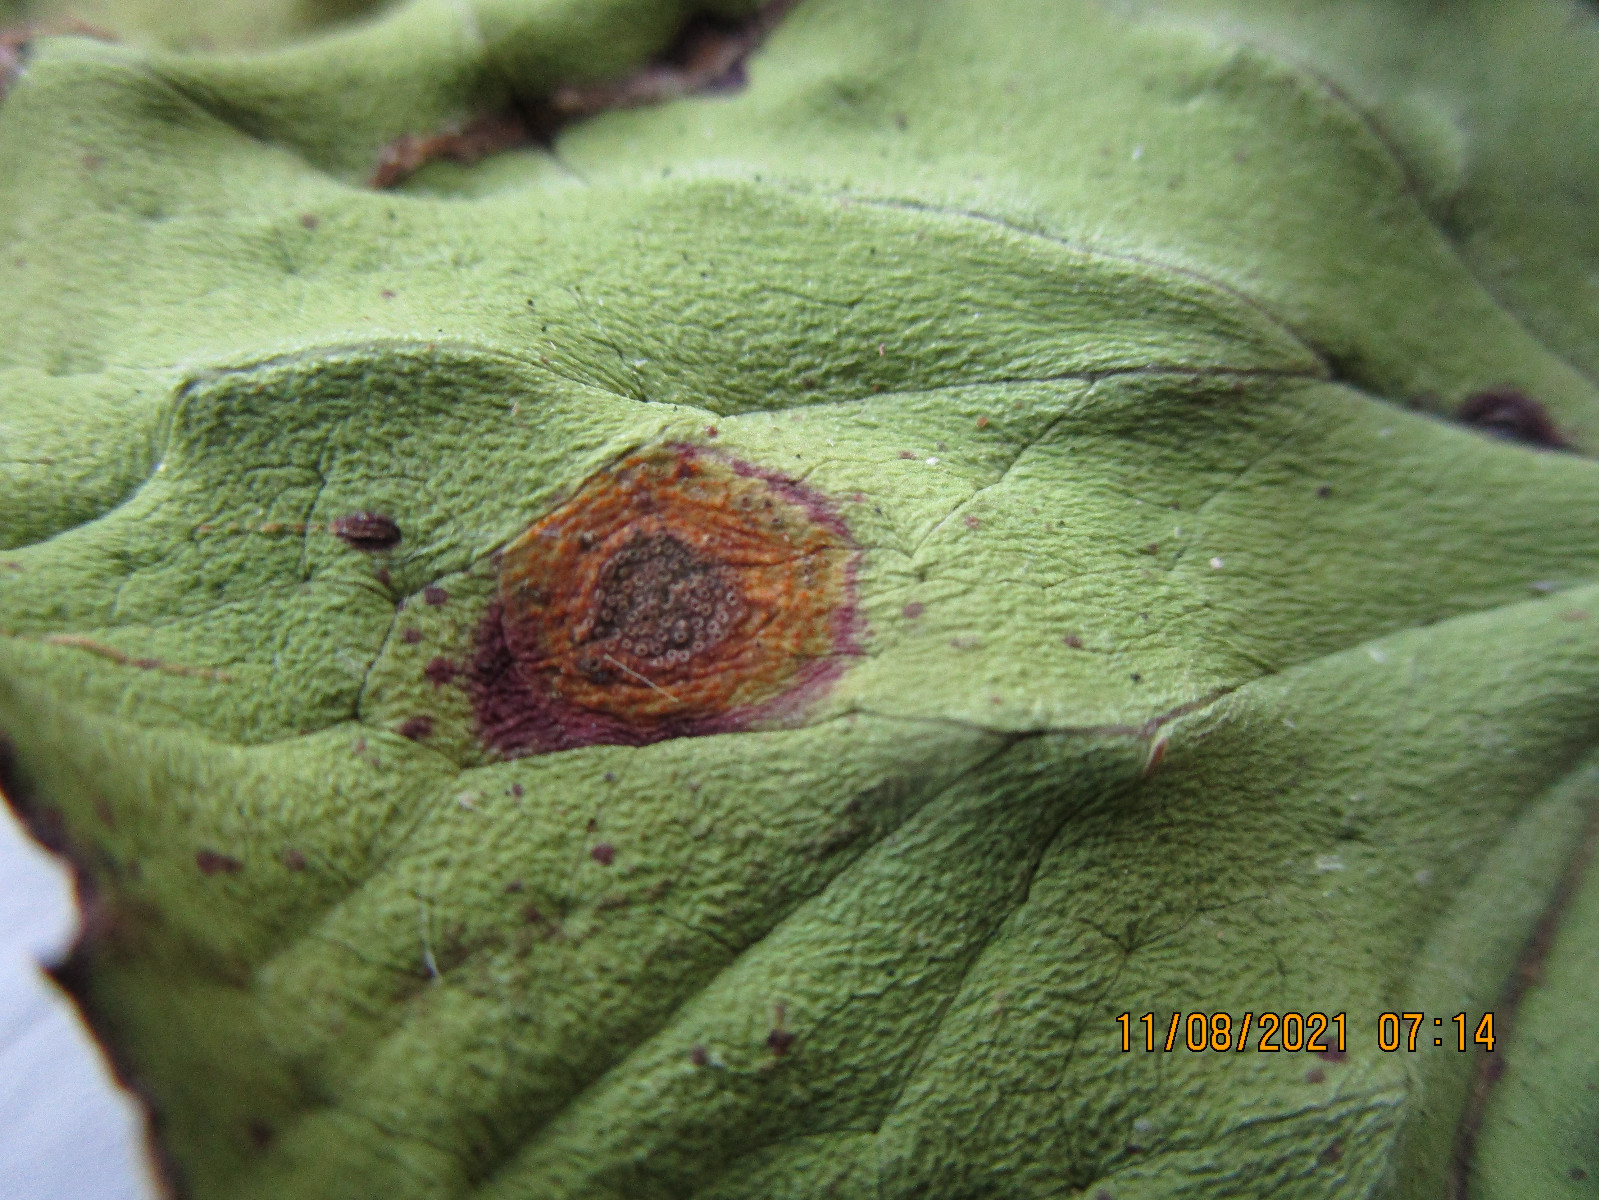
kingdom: Fungi
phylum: Basidiomycota
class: Pucciniomycetes
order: Pucciniales
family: Pucciniaceae
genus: Puccinia
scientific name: Puccinia poarum
